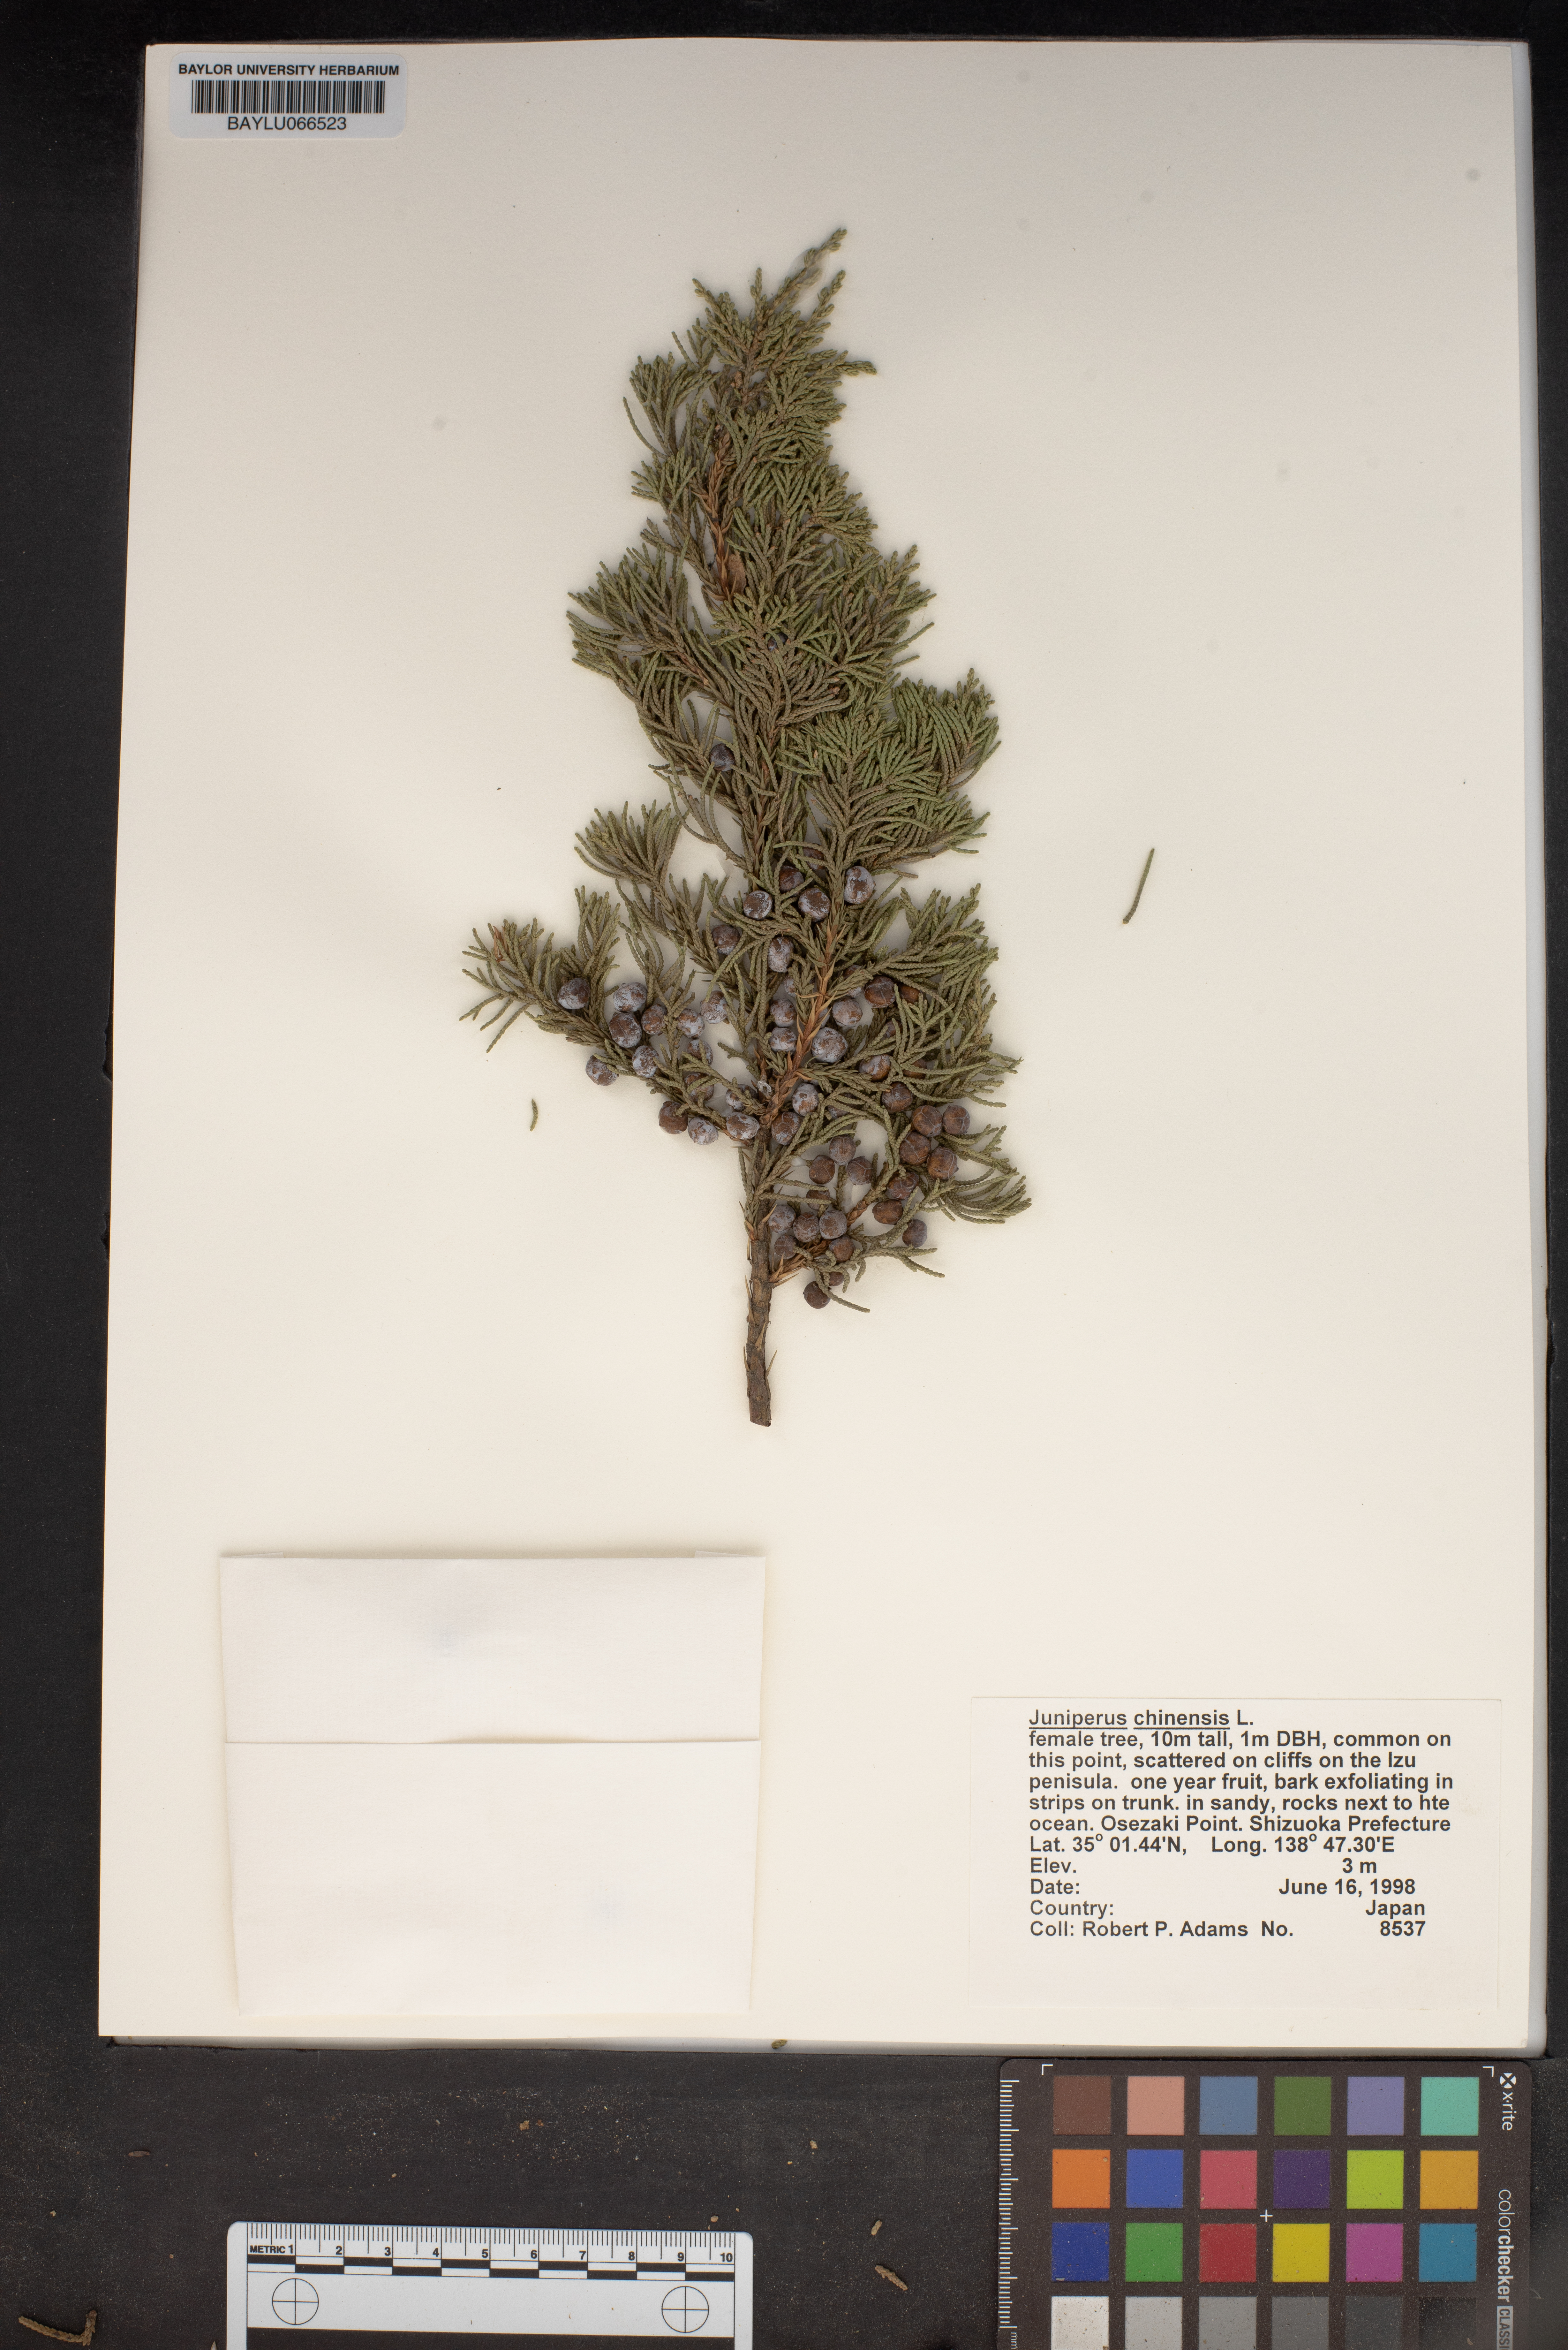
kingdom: Plantae
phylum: Tracheophyta
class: Pinopsida
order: Pinales
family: Cupressaceae
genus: Juniperus
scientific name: Juniperus chinensis
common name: Chinese juniper
